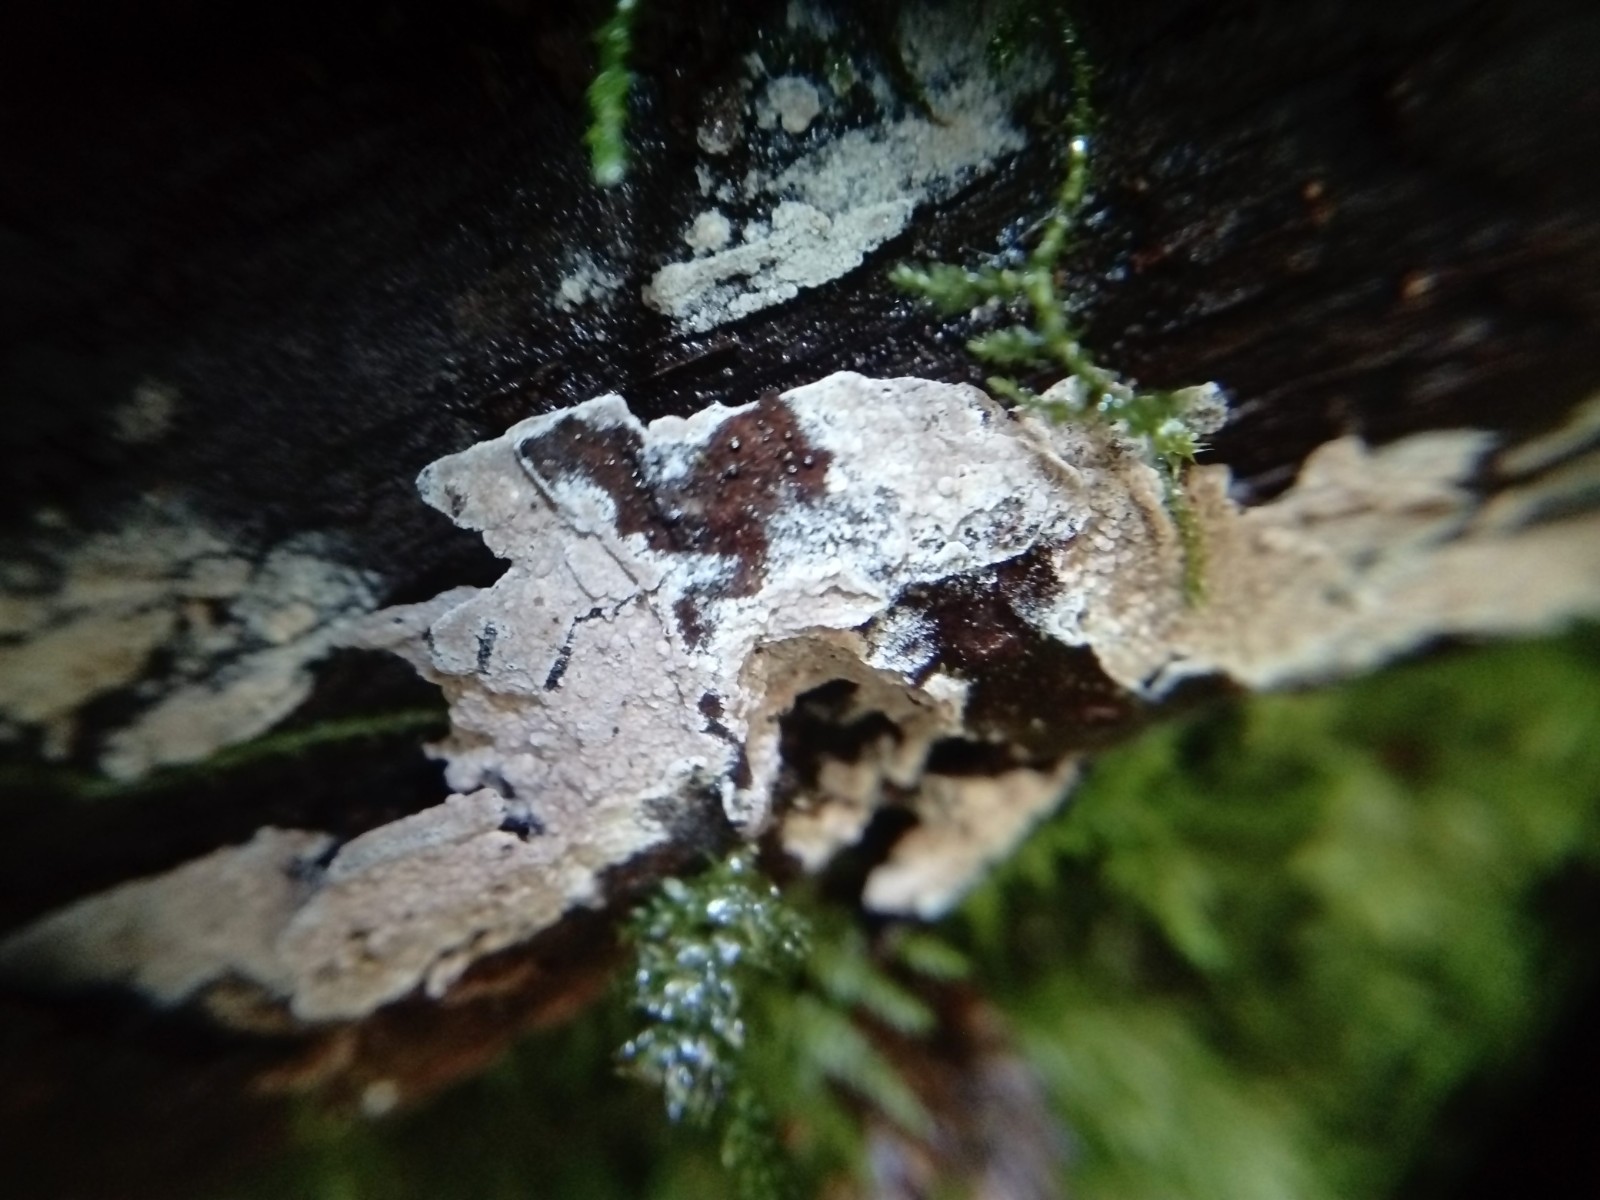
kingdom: Fungi
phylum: Basidiomycota
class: Agaricomycetes
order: Thelephorales
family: Thelephoraceae
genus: Tomentella
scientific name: Tomentella
